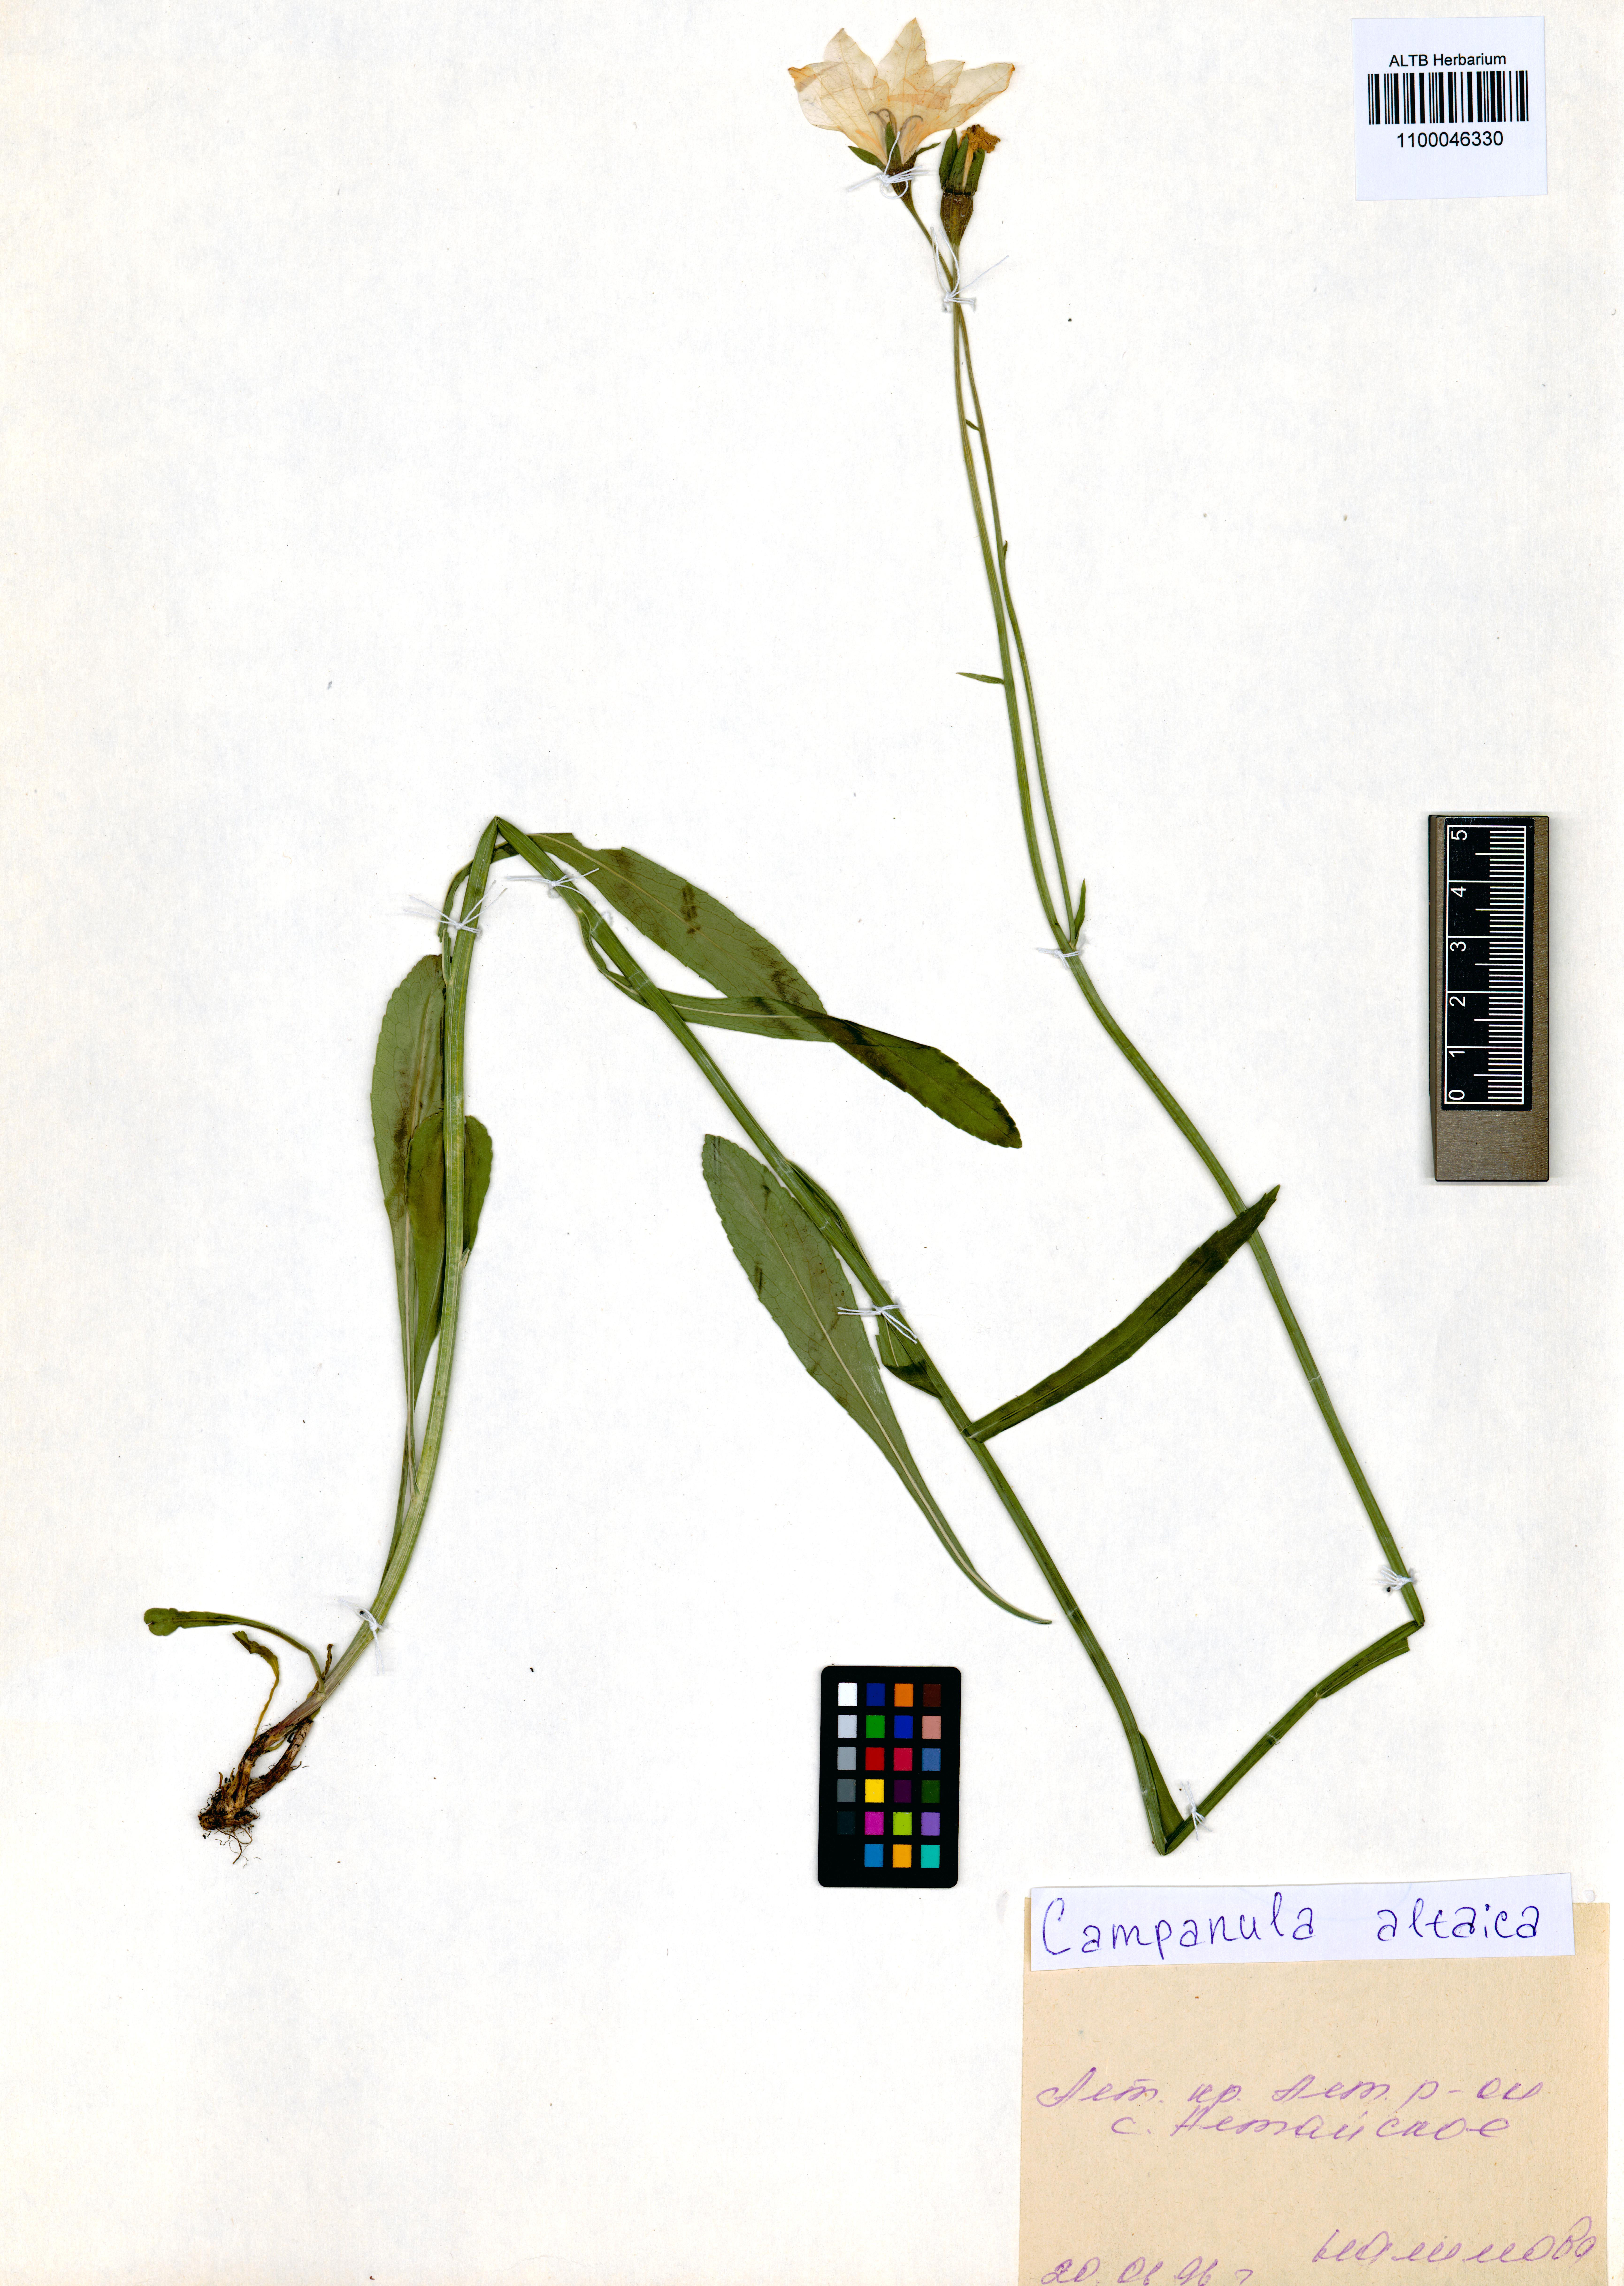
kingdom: Plantae
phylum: Tracheophyta
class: Magnoliopsida
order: Asterales
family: Campanulaceae
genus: Campanula
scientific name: Campanula stevenii
